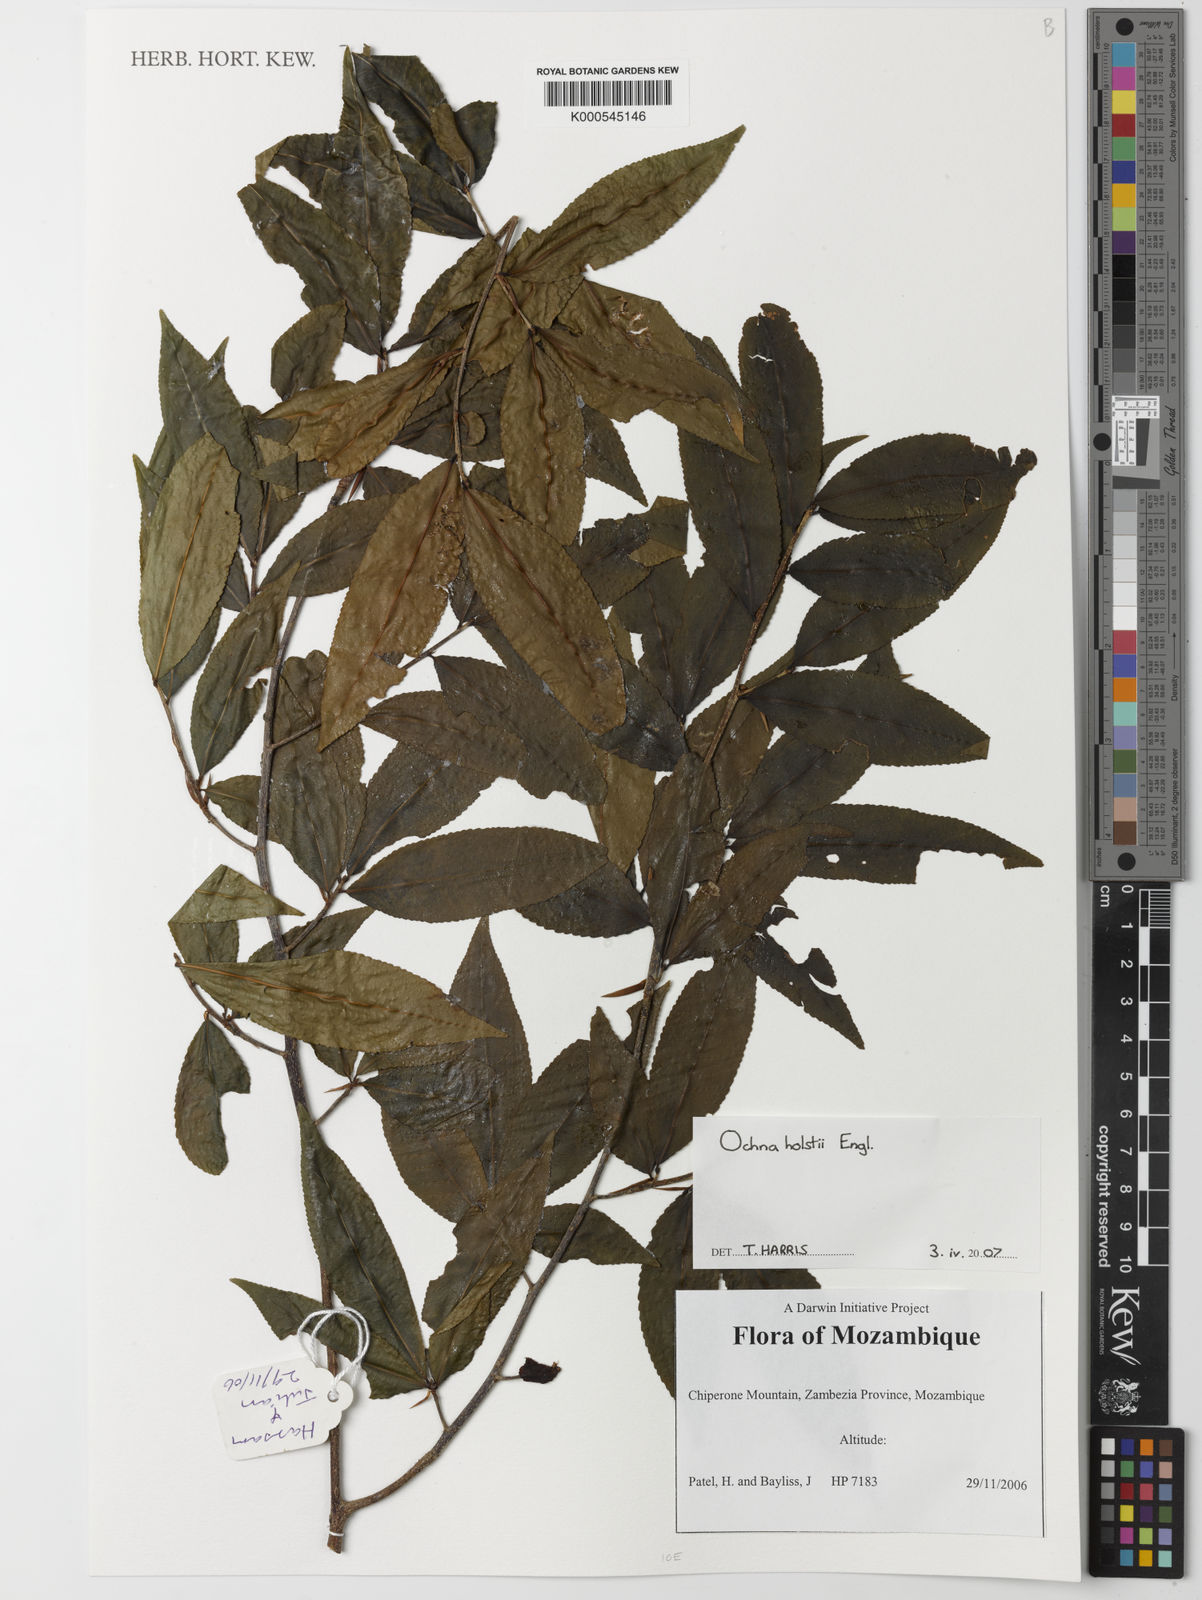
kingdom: Plantae
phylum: Tracheophyta
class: Magnoliopsida
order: Malpighiales
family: Ochnaceae
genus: Ochna
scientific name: Ochna holstii
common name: Red ironwood
